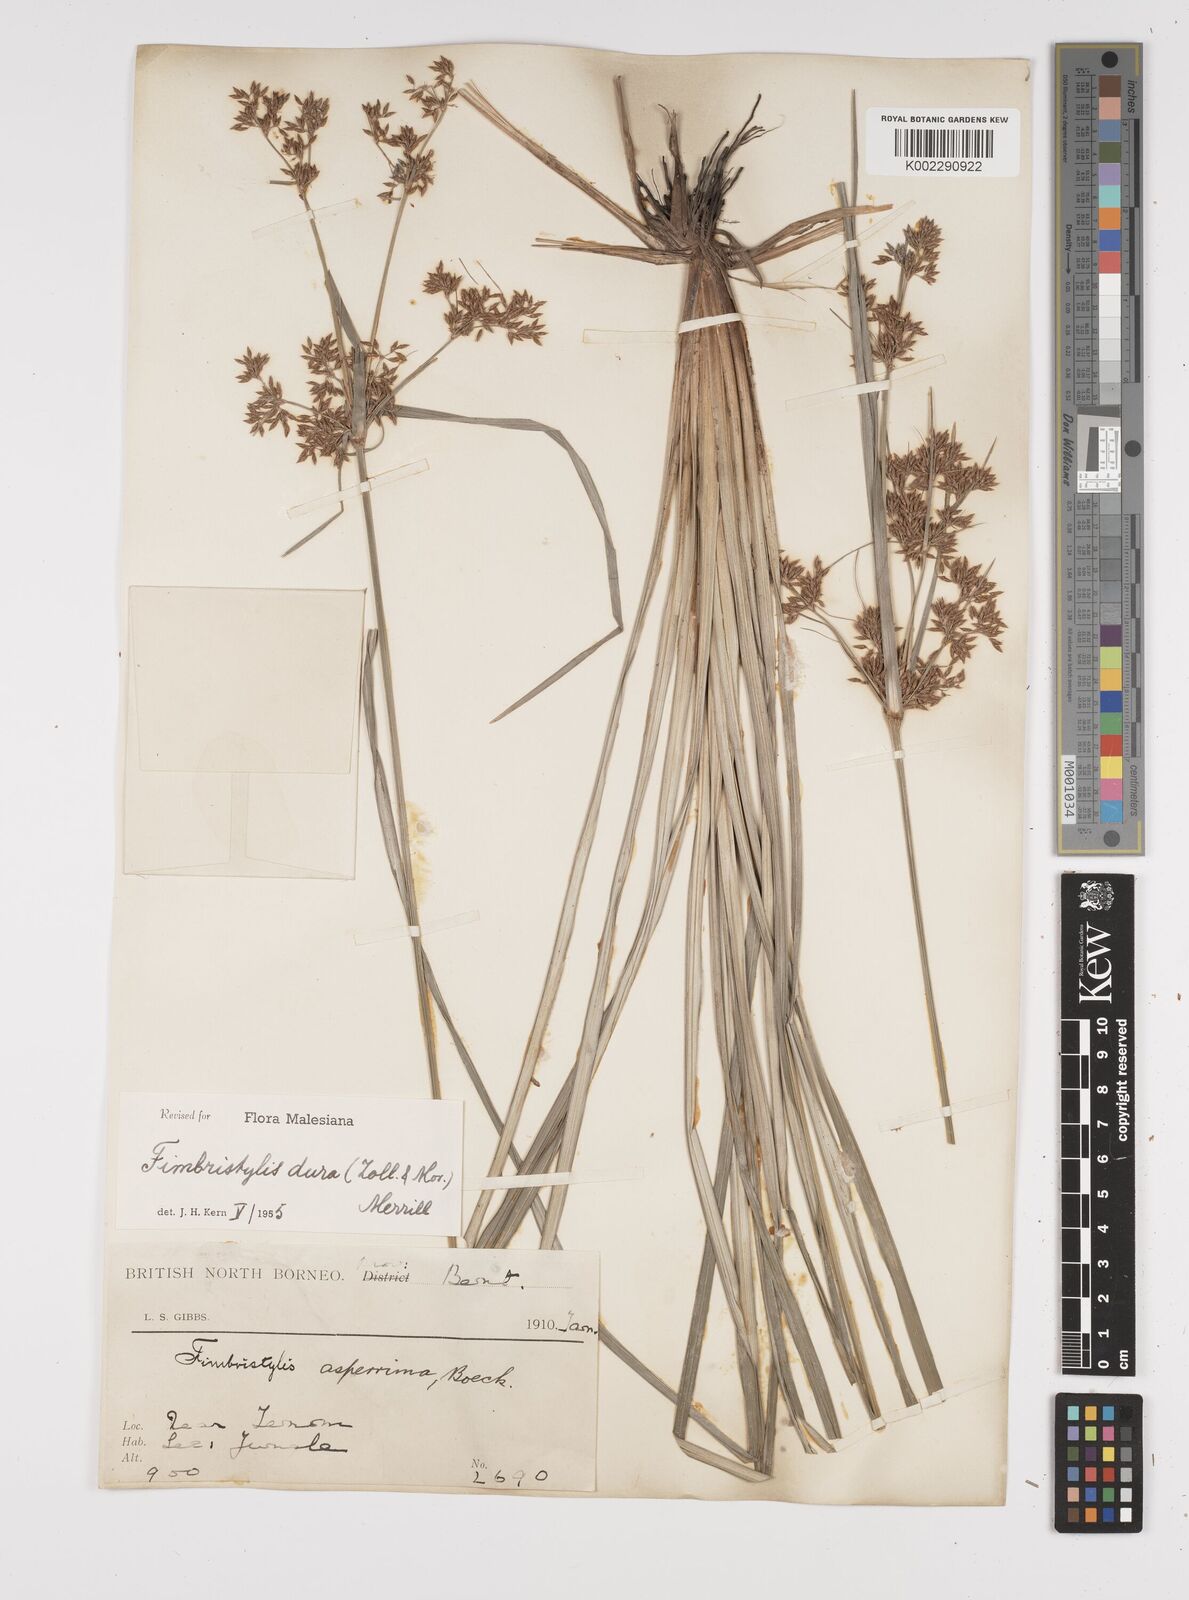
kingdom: Plantae
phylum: Tracheophyta
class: Liliopsida
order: Poales
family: Cyperaceae
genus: Fimbristylis
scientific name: Fimbristylis dura
